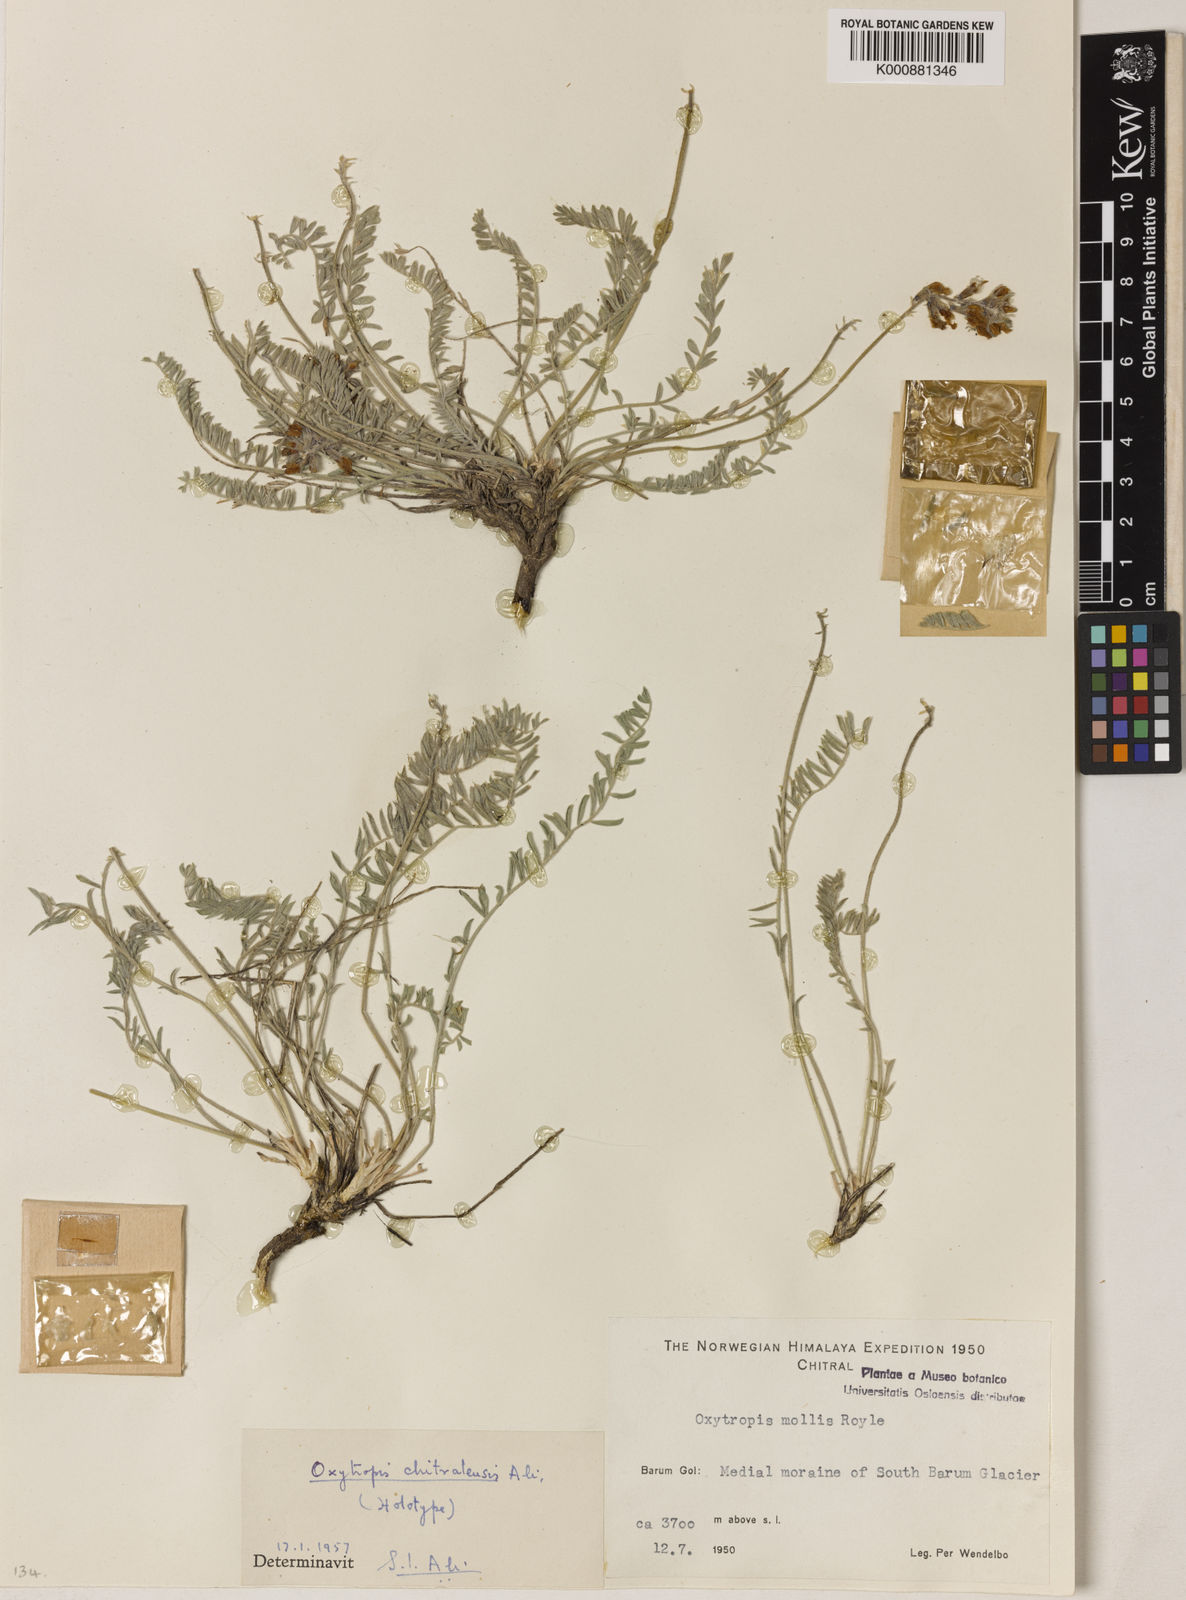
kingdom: Plantae
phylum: Tracheophyta
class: Magnoliopsida
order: Fabales
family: Fabaceae
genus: Oxytropis
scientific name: Oxytropis chitralensis
